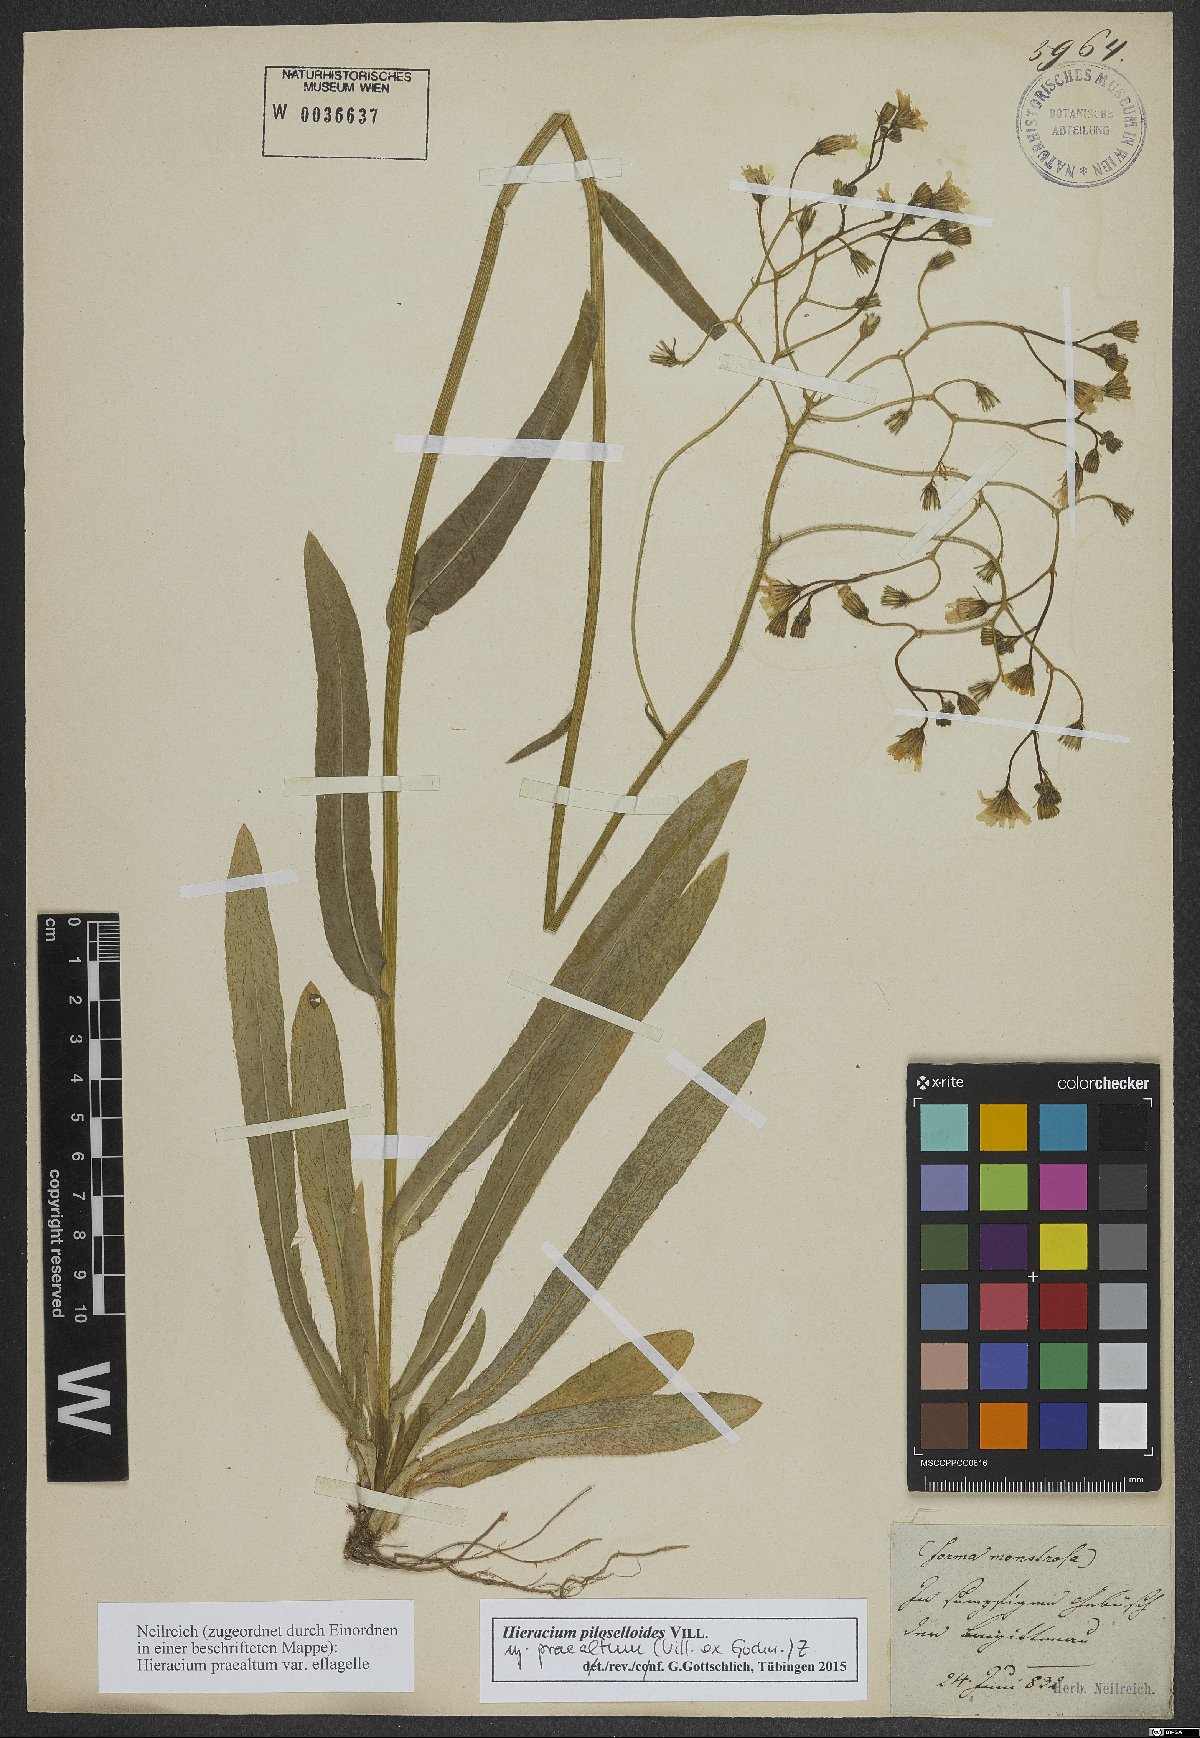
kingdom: Plantae
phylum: Tracheophyta
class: Magnoliopsida
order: Asterales
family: Asteraceae
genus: Pilosella
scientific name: Pilosella piloselloides
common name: Glaucous king-devil
